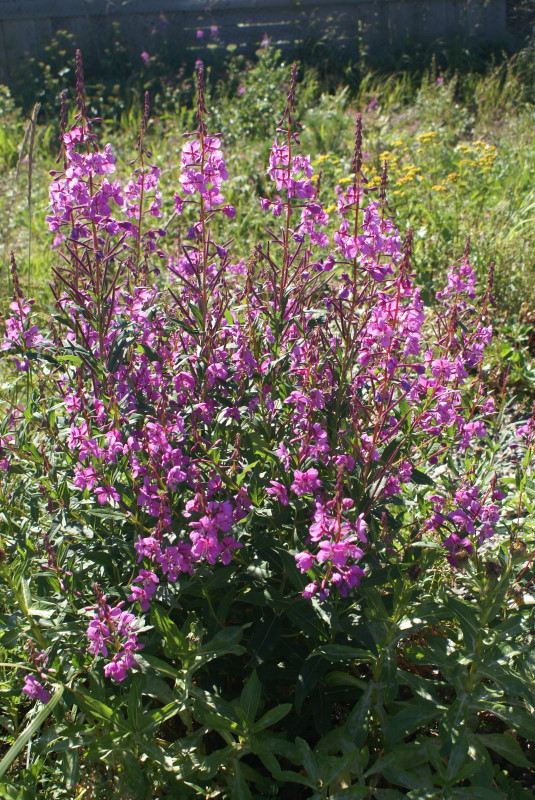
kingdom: Plantae
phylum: Tracheophyta
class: Magnoliopsida
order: Myrtales
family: Onagraceae
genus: Chamaenerion
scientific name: Chamaenerion angustifolium
